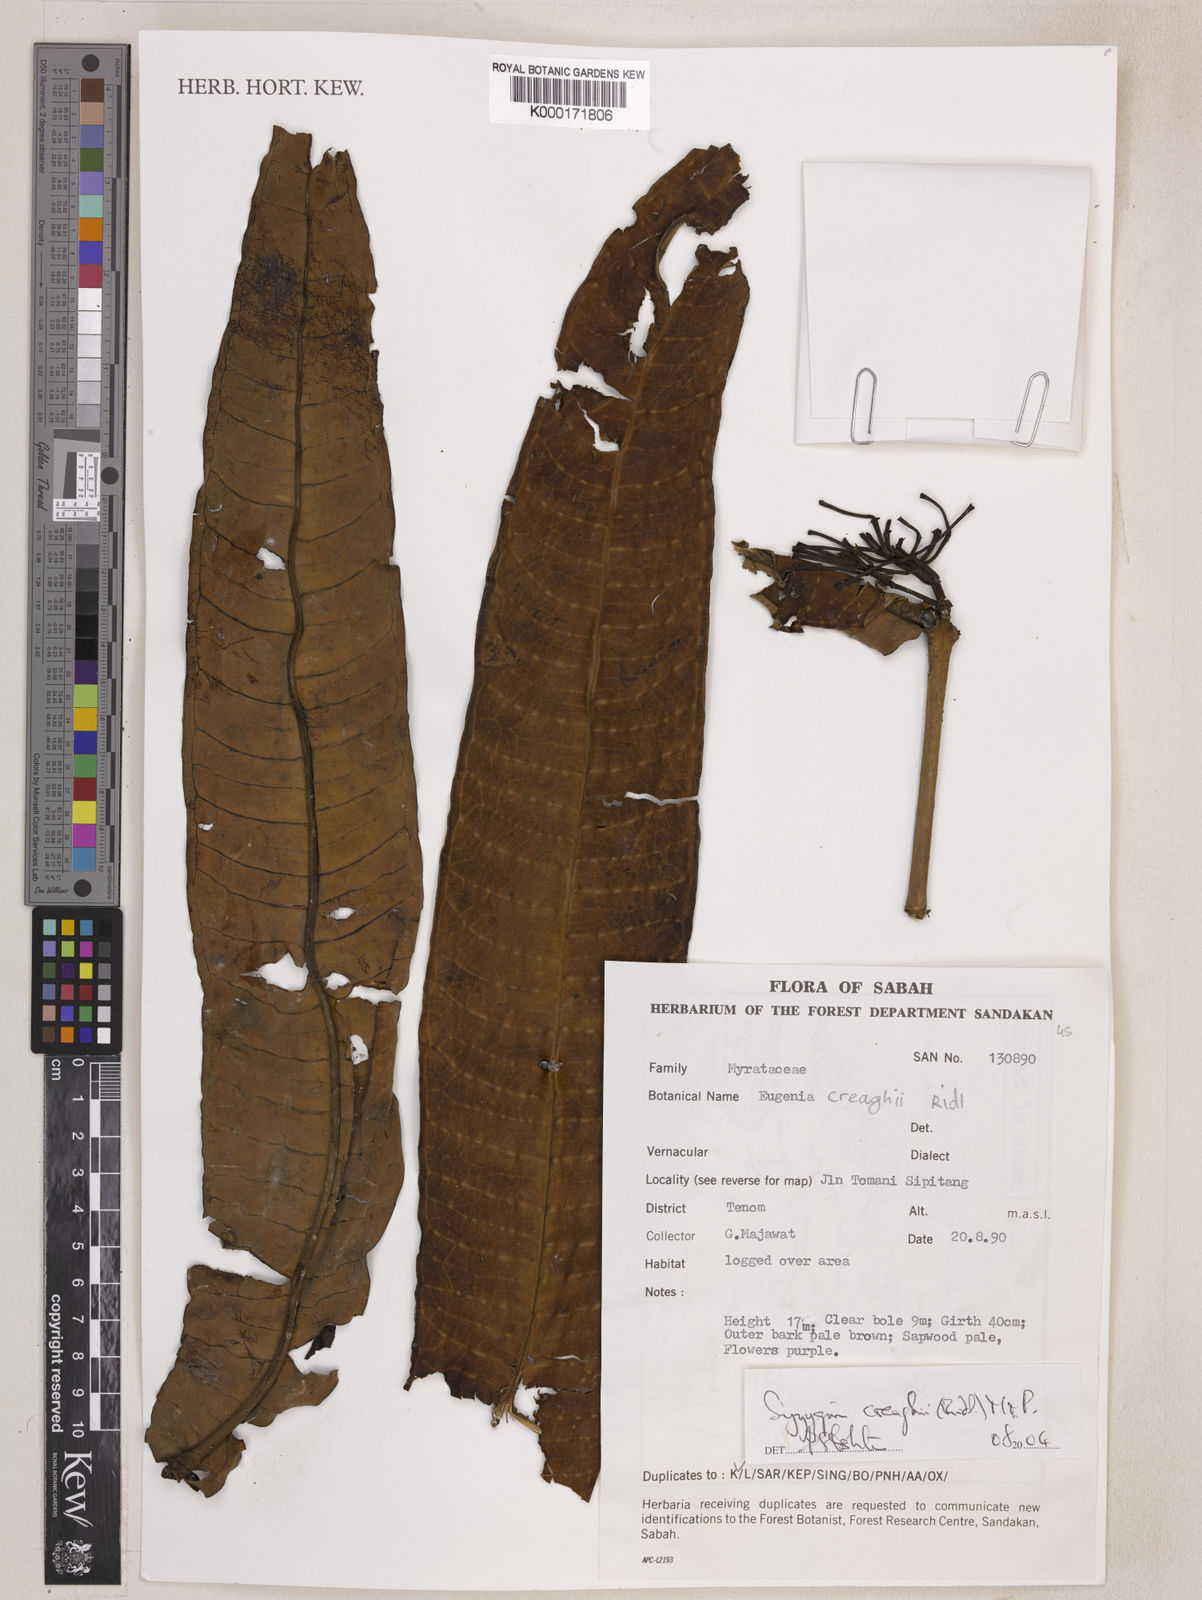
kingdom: Plantae
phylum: Tracheophyta
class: Magnoliopsida
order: Myrtales
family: Myrtaceae
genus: Syzygium
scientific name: Syzygium creaghii
